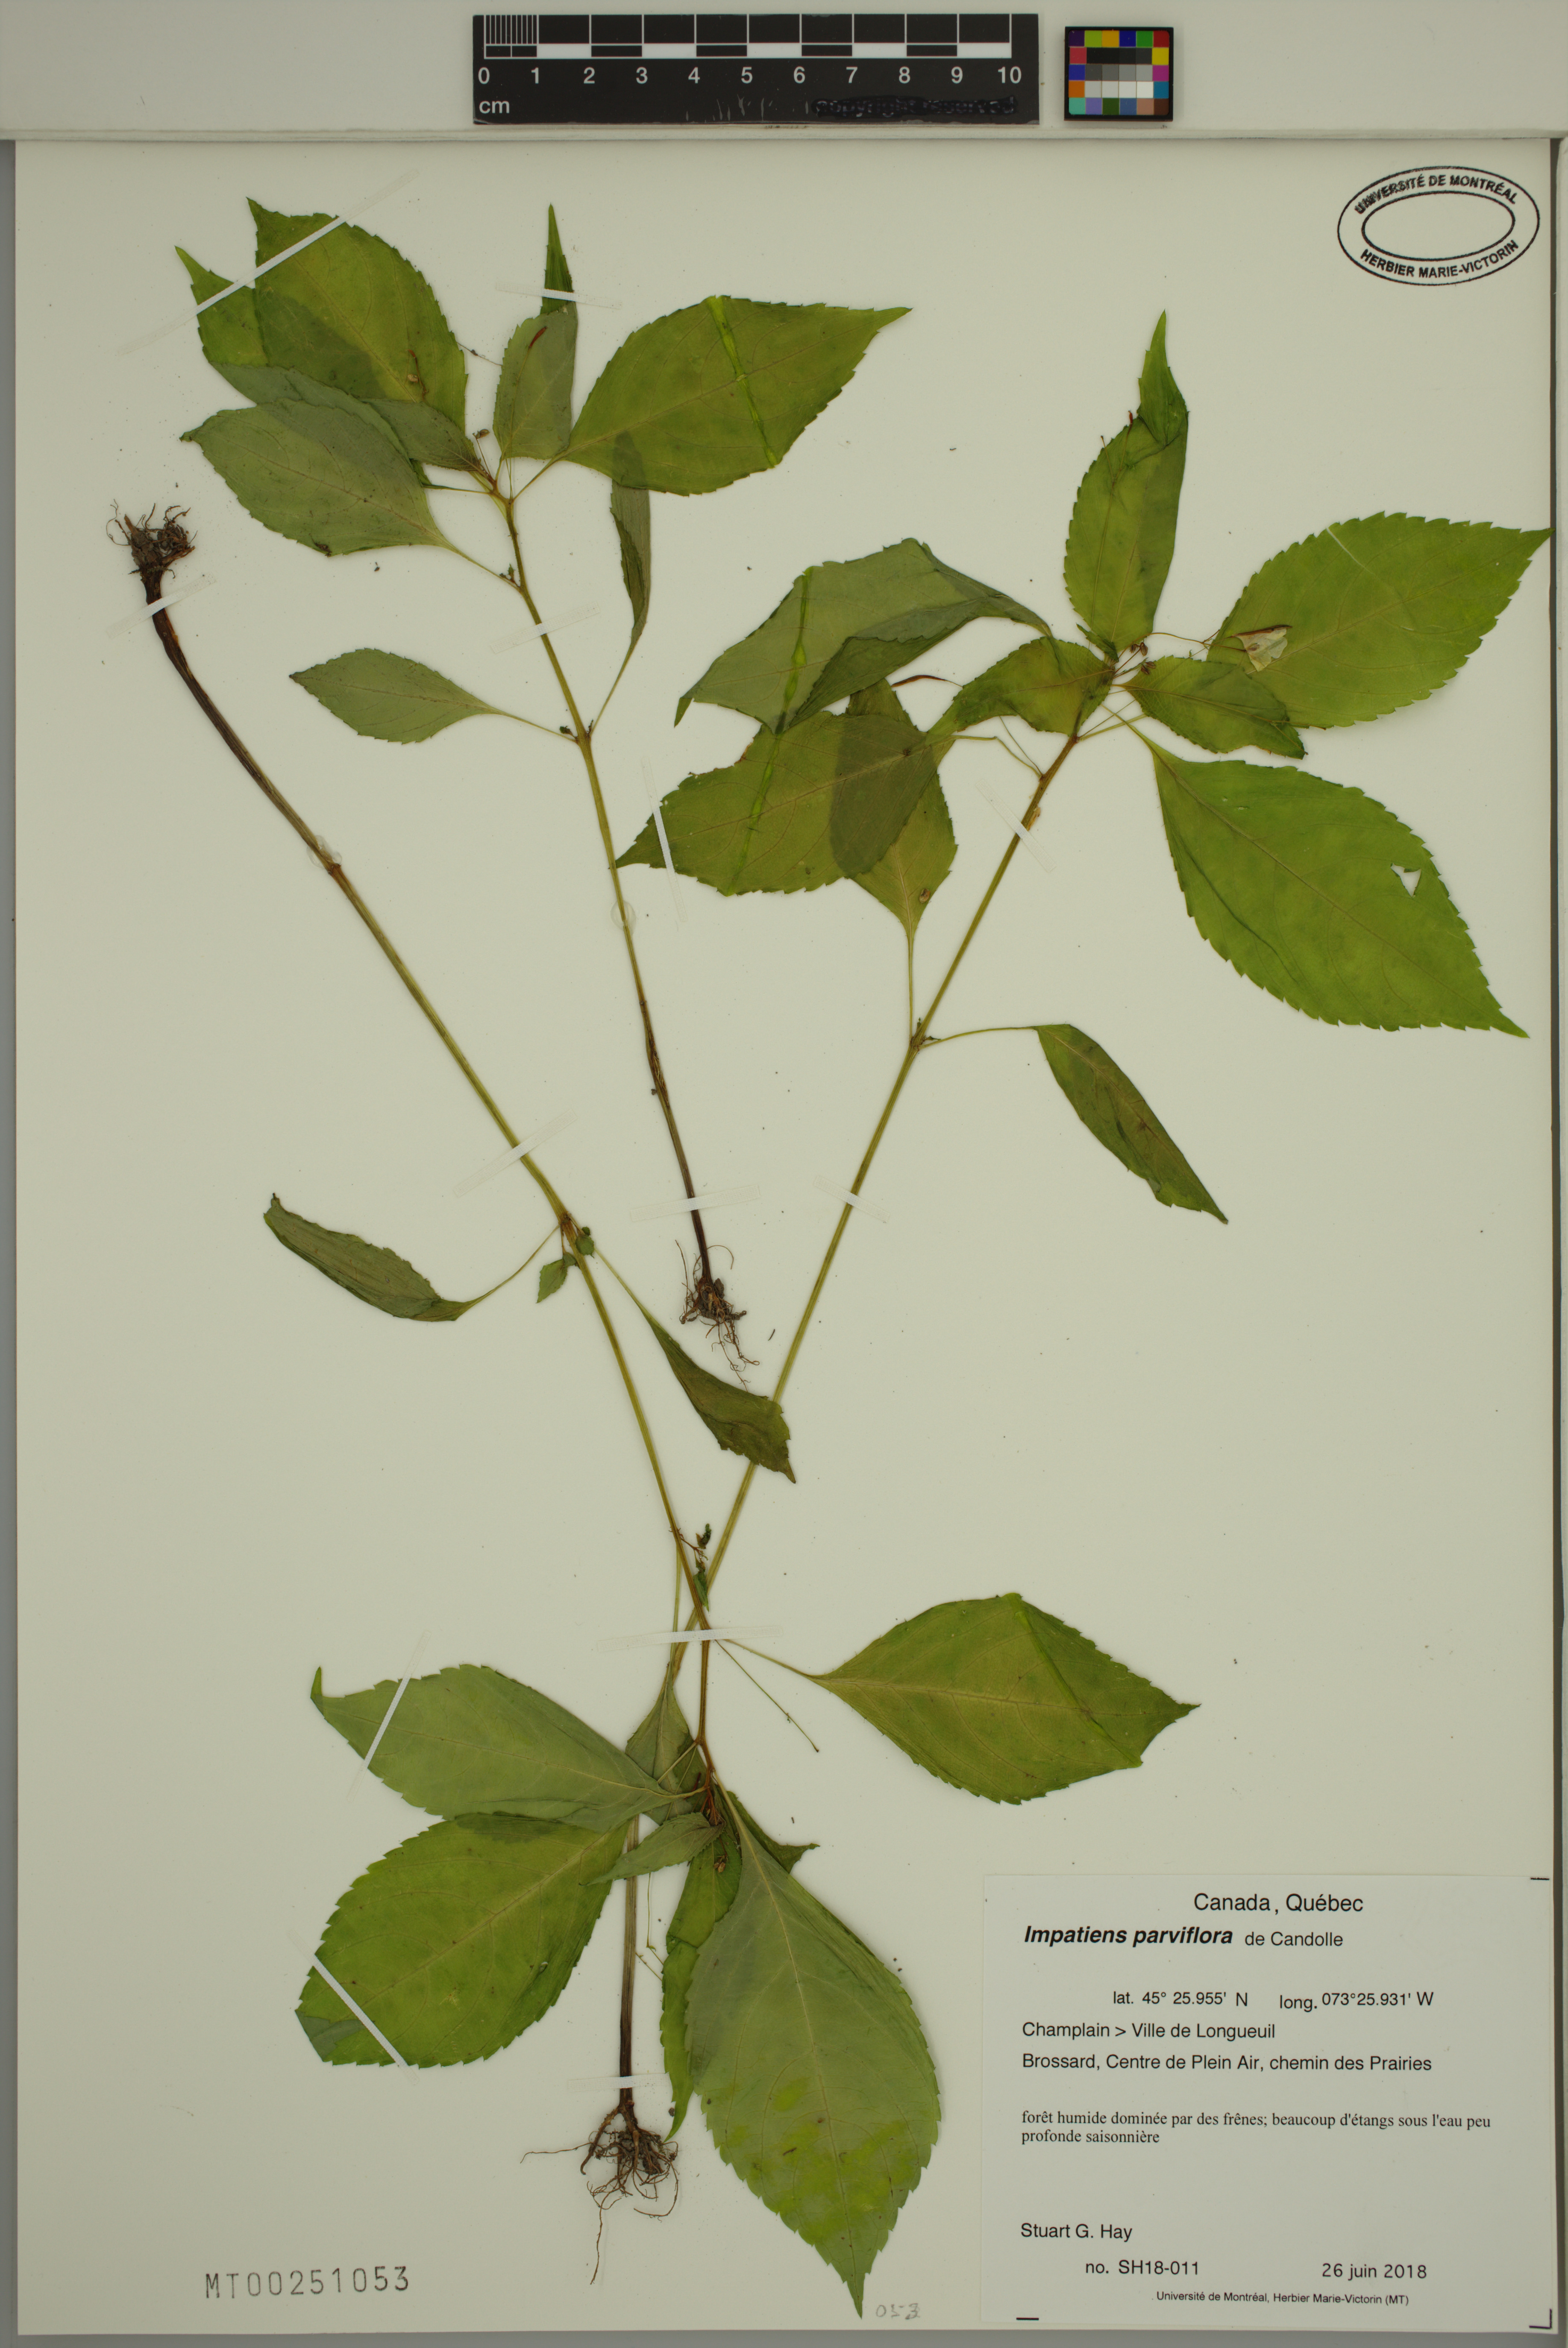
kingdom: Plantae
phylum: Tracheophyta
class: Magnoliopsida
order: Ericales
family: Balsaminaceae
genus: Impatiens
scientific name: Impatiens parviflora
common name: Small balsam
